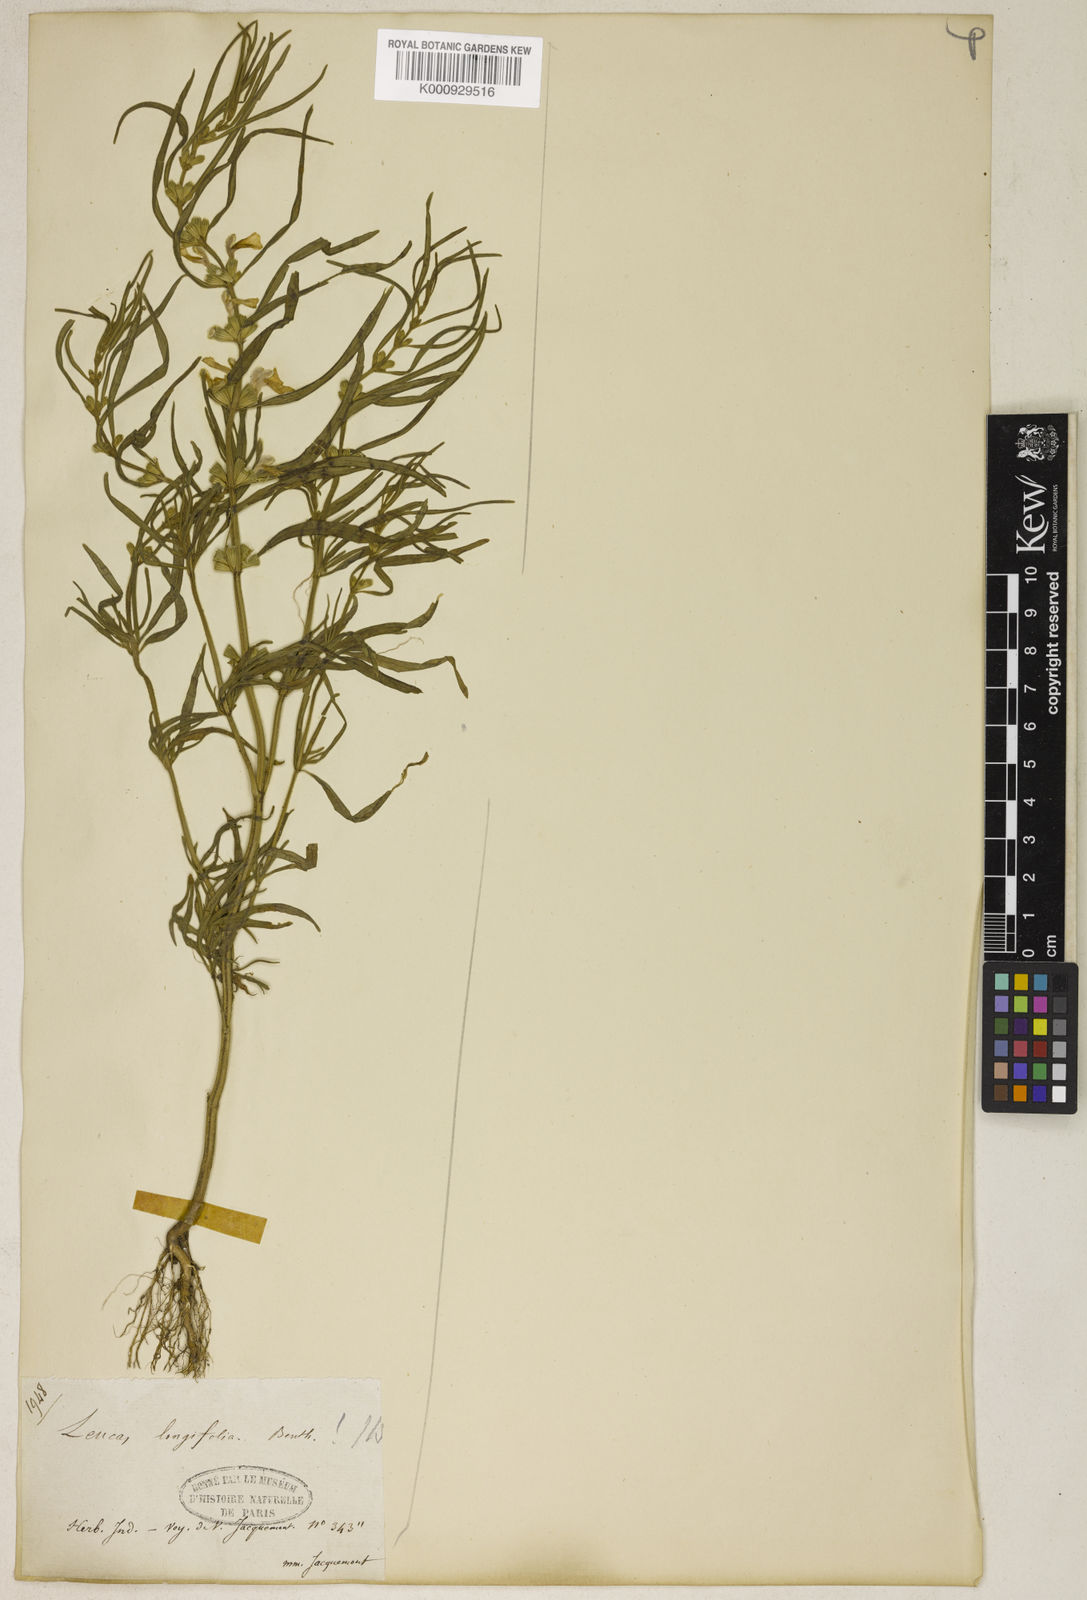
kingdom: Plantae
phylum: Tracheophyta
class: Magnoliopsida
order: Lamiales
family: Lamiaceae
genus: Leucas
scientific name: Leucas longifolia
